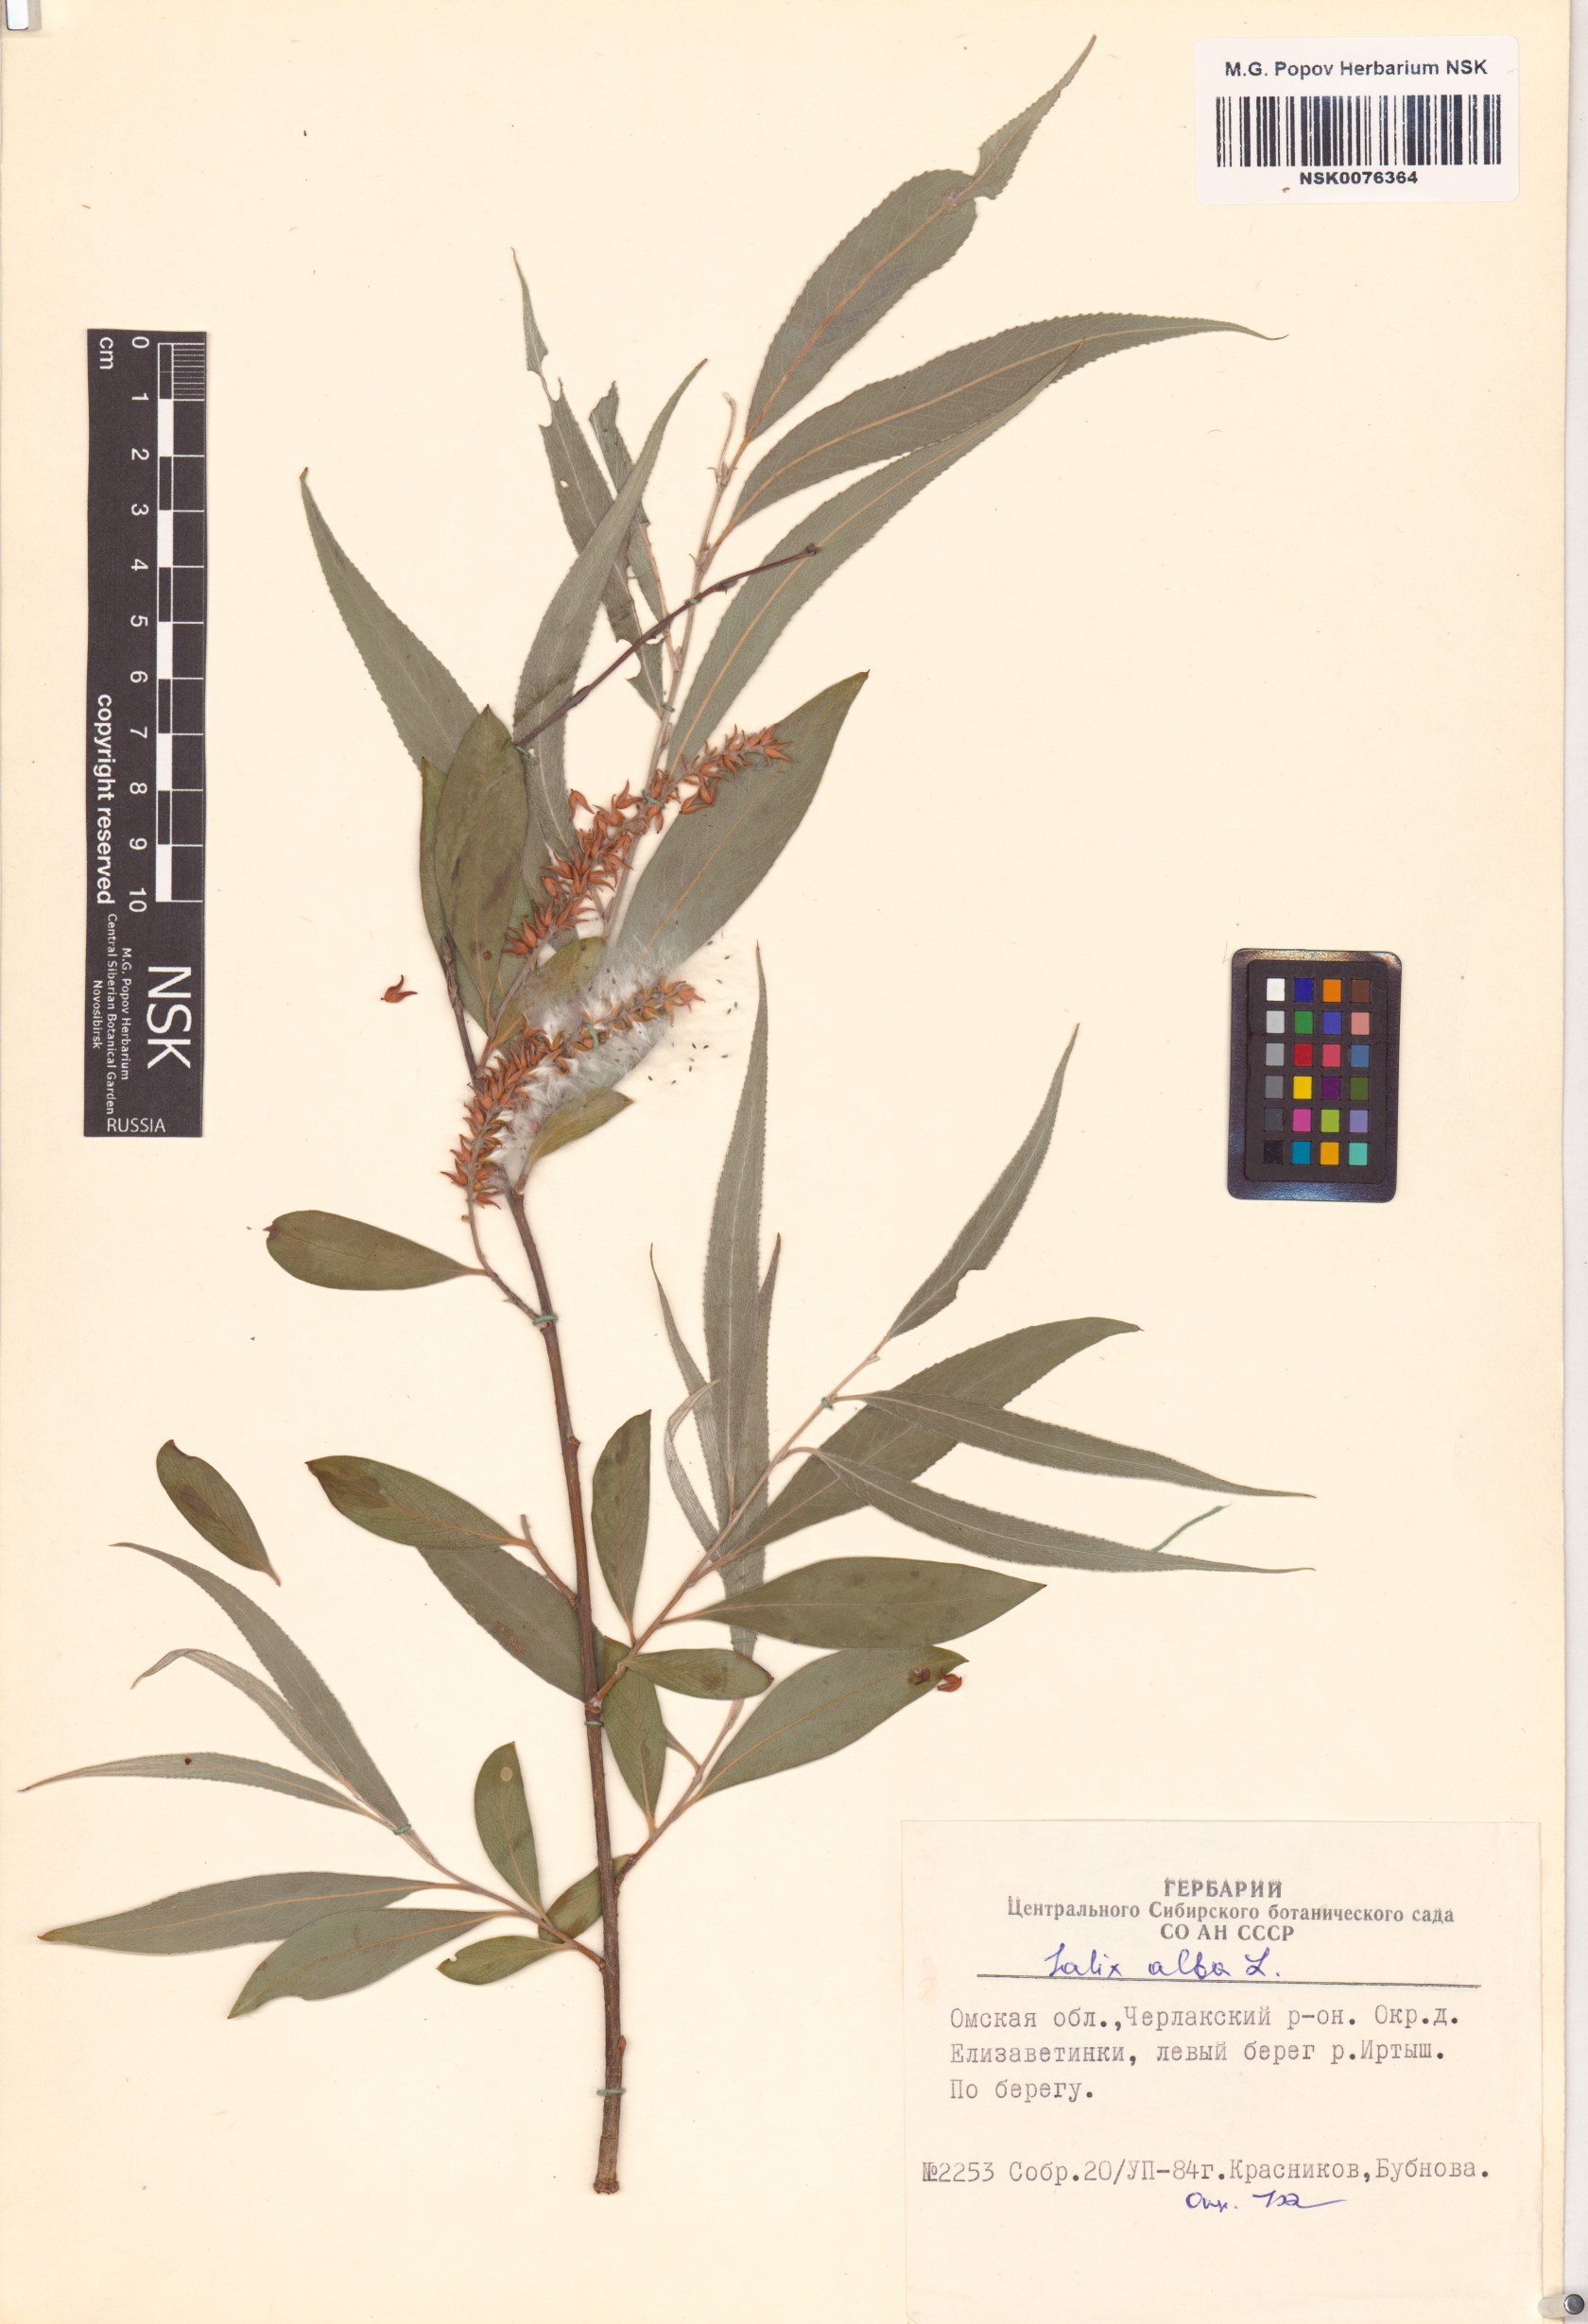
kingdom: Plantae
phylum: Tracheophyta
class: Magnoliopsida
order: Malpighiales
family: Salicaceae
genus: Salix
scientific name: Salix alba
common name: White willow
